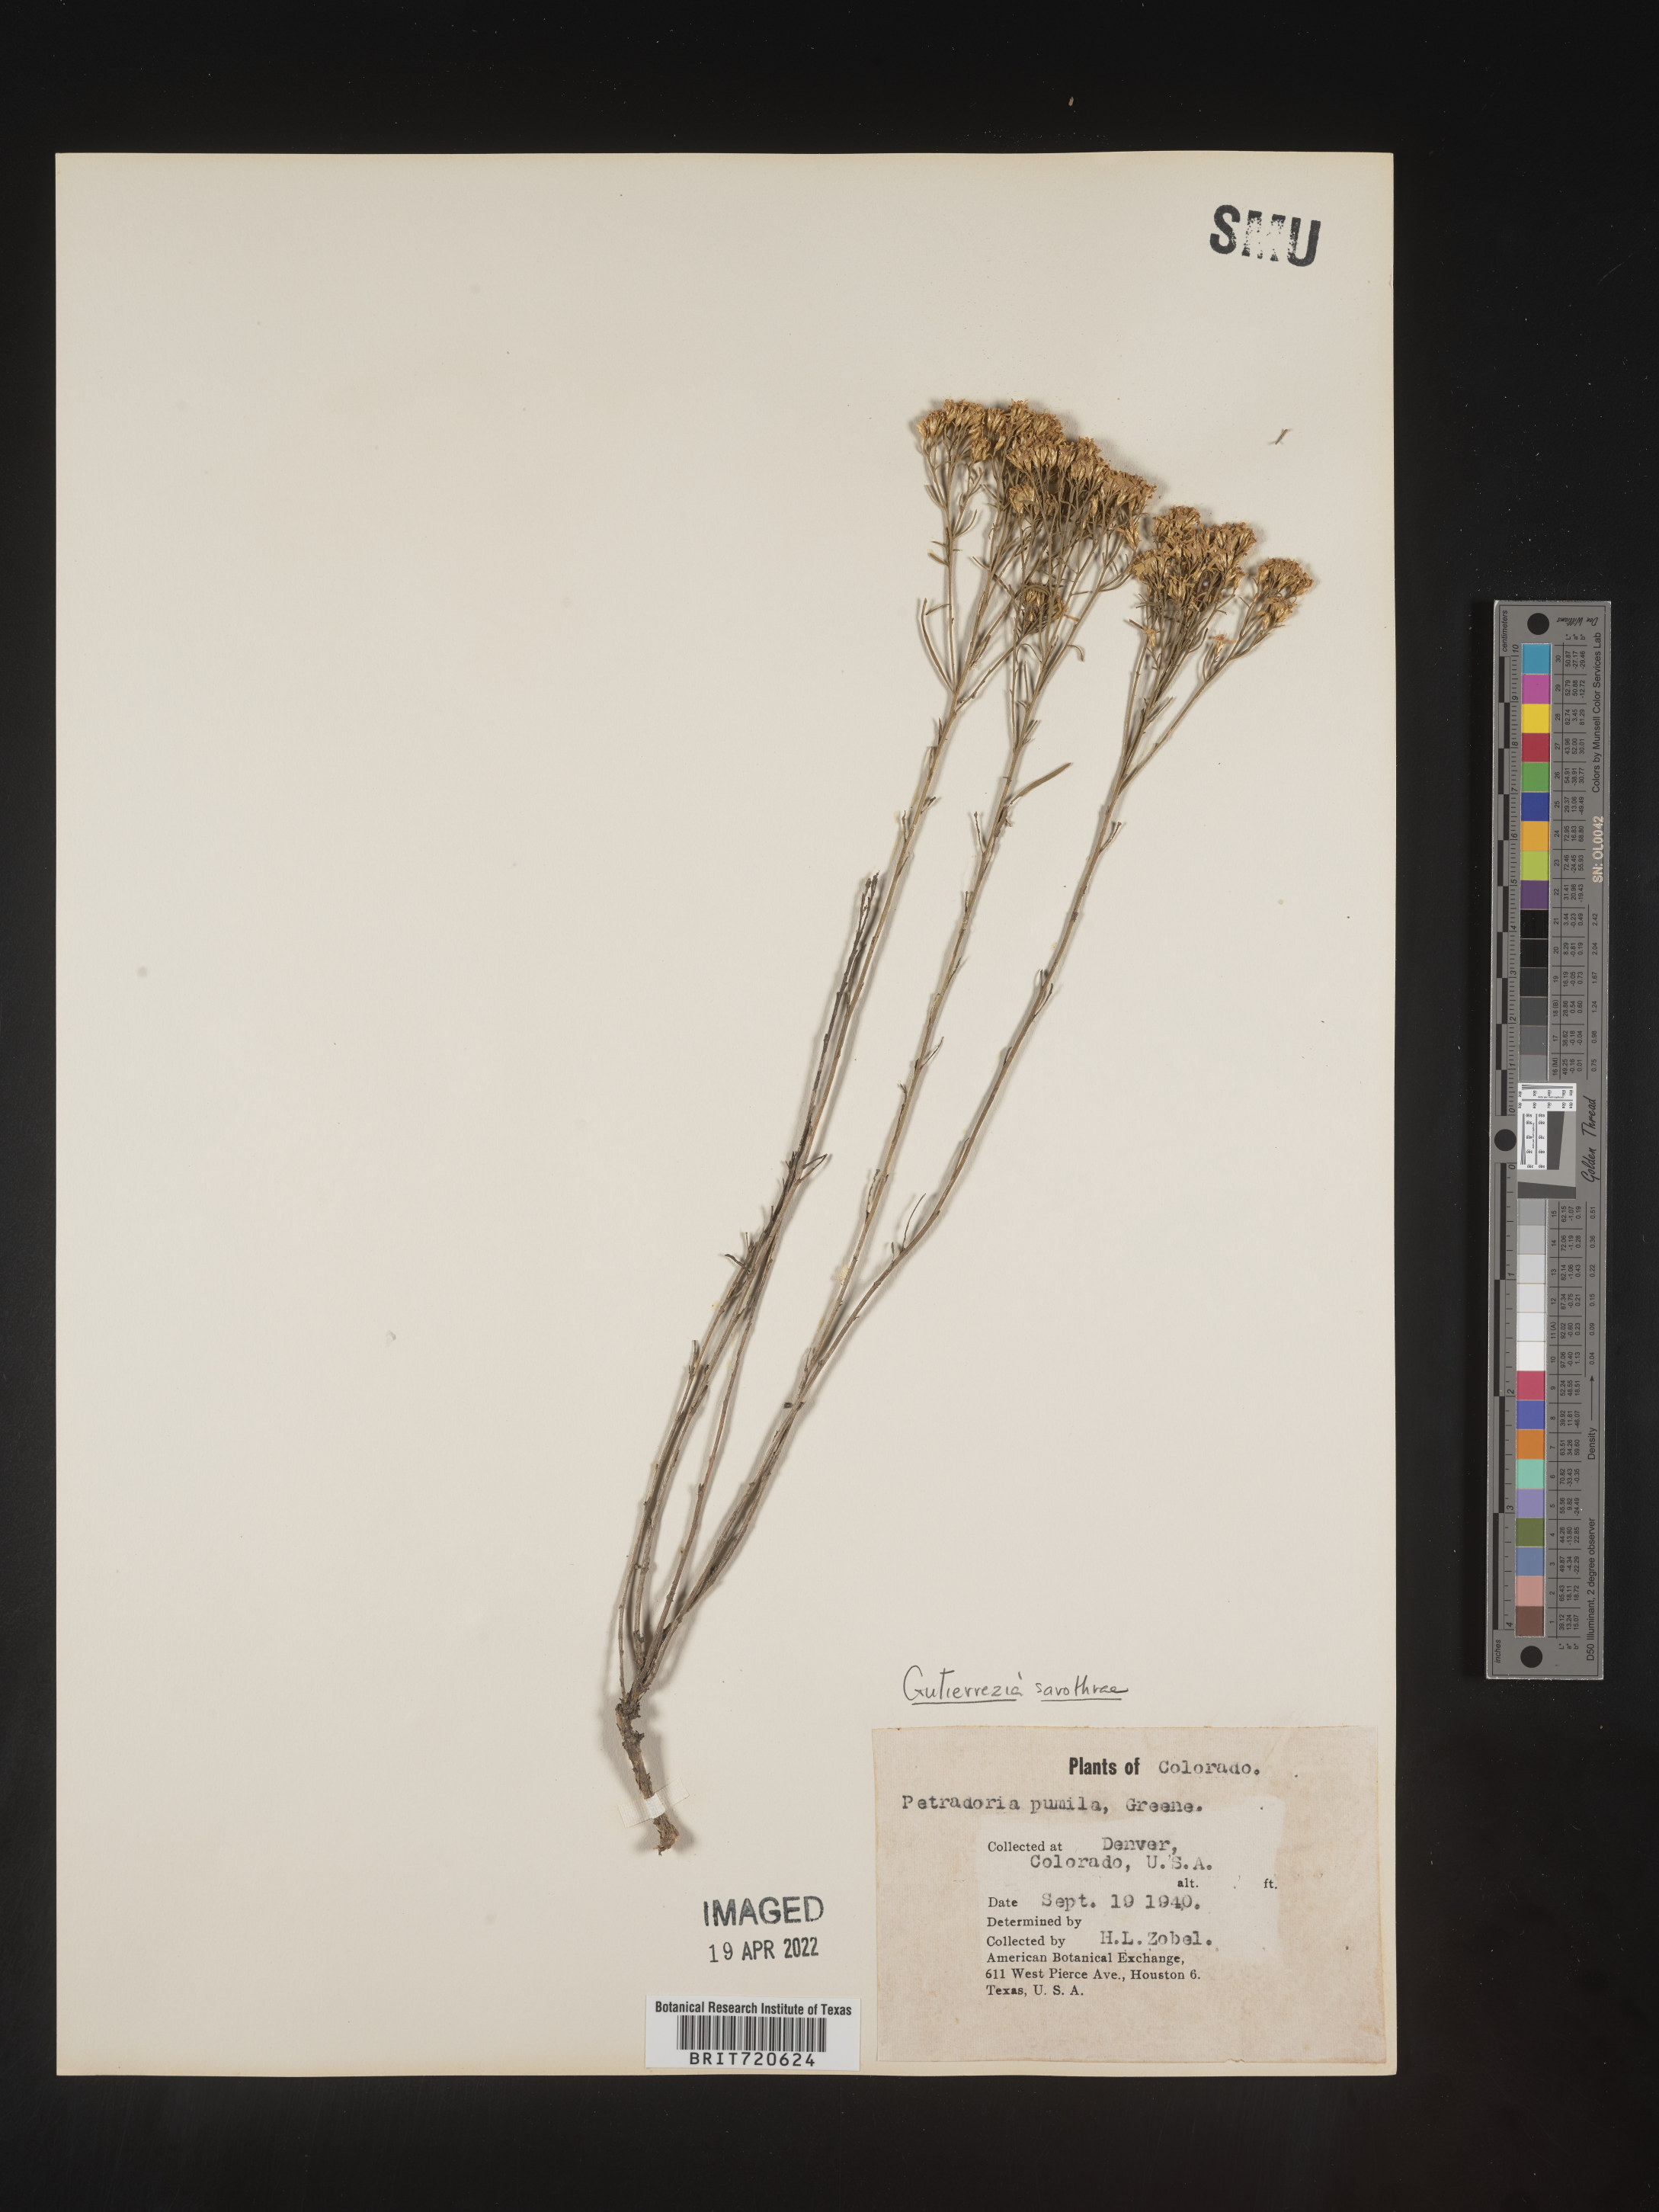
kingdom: Plantae
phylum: Tracheophyta
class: Magnoliopsida
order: Asterales
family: Asteraceae
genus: Gutierrezia
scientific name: Gutierrezia sarothrae
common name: Broom snakeweed
